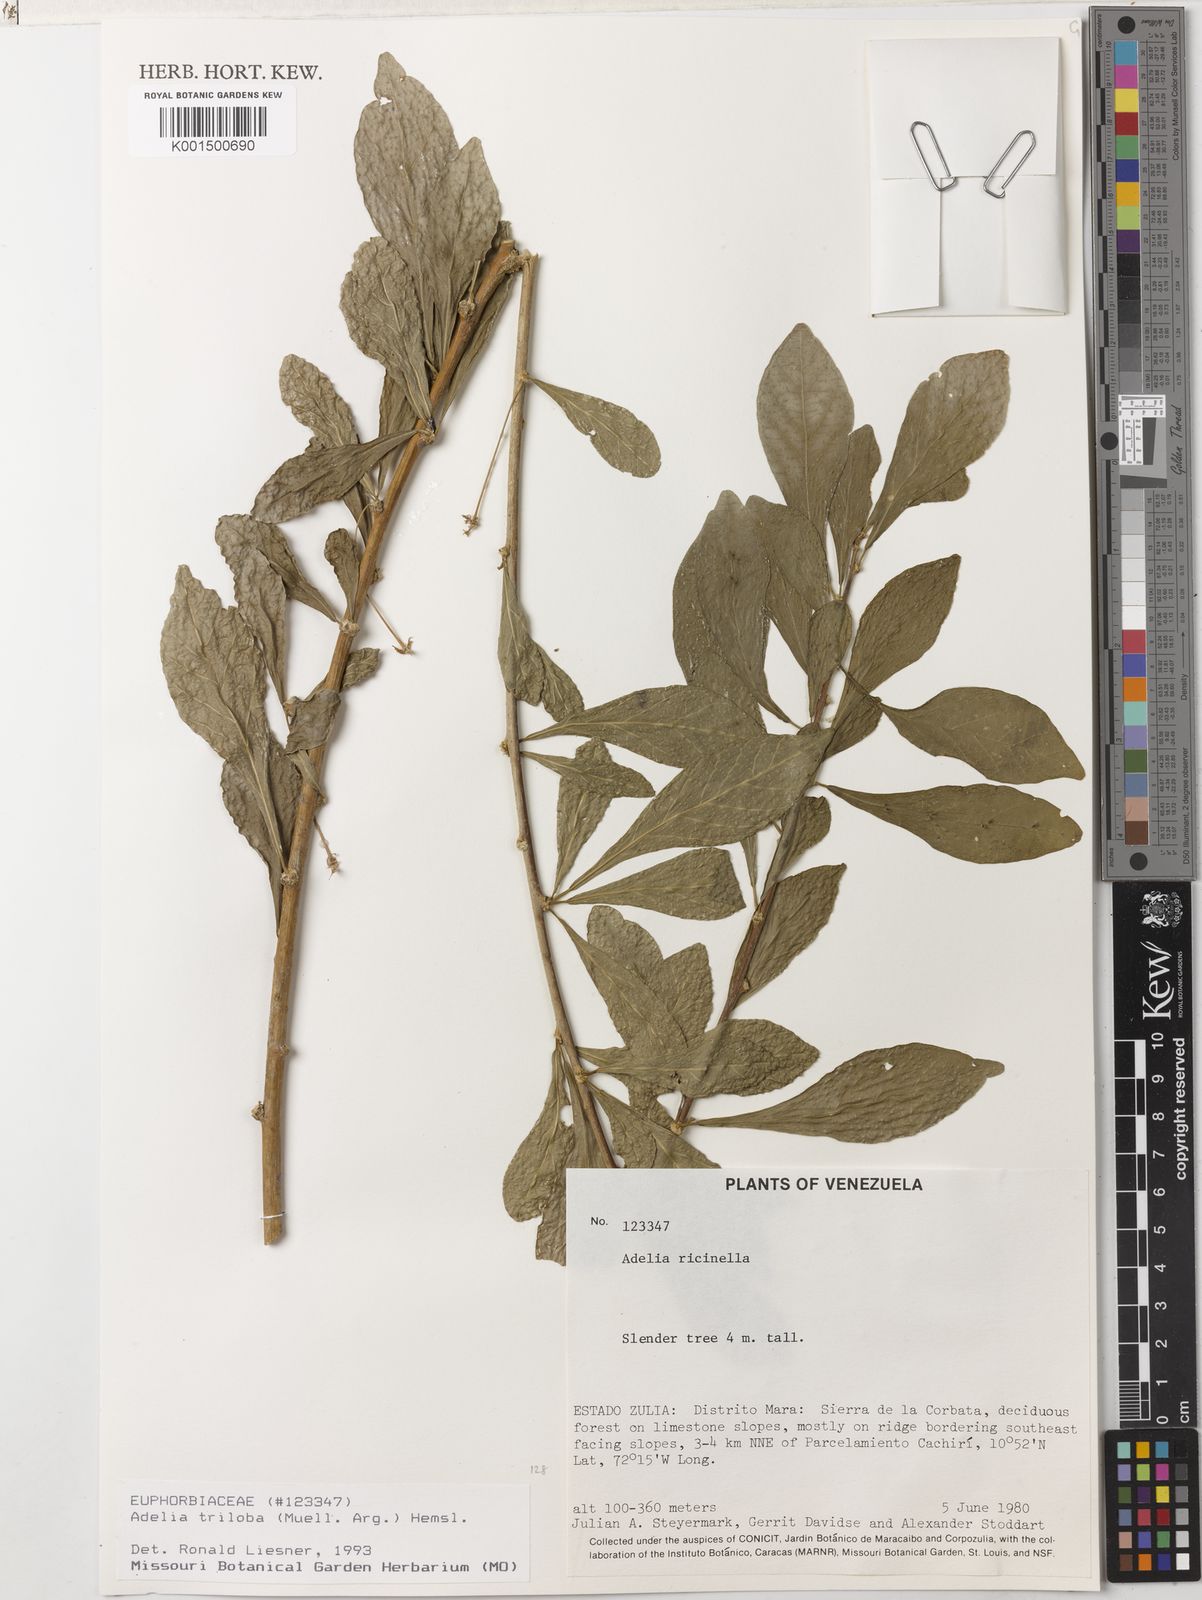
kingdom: Plantae
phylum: Tracheophyta
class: Magnoliopsida
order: Malpighiales
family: Euphorbiaceae
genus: Adelia
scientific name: Adelia triloba
